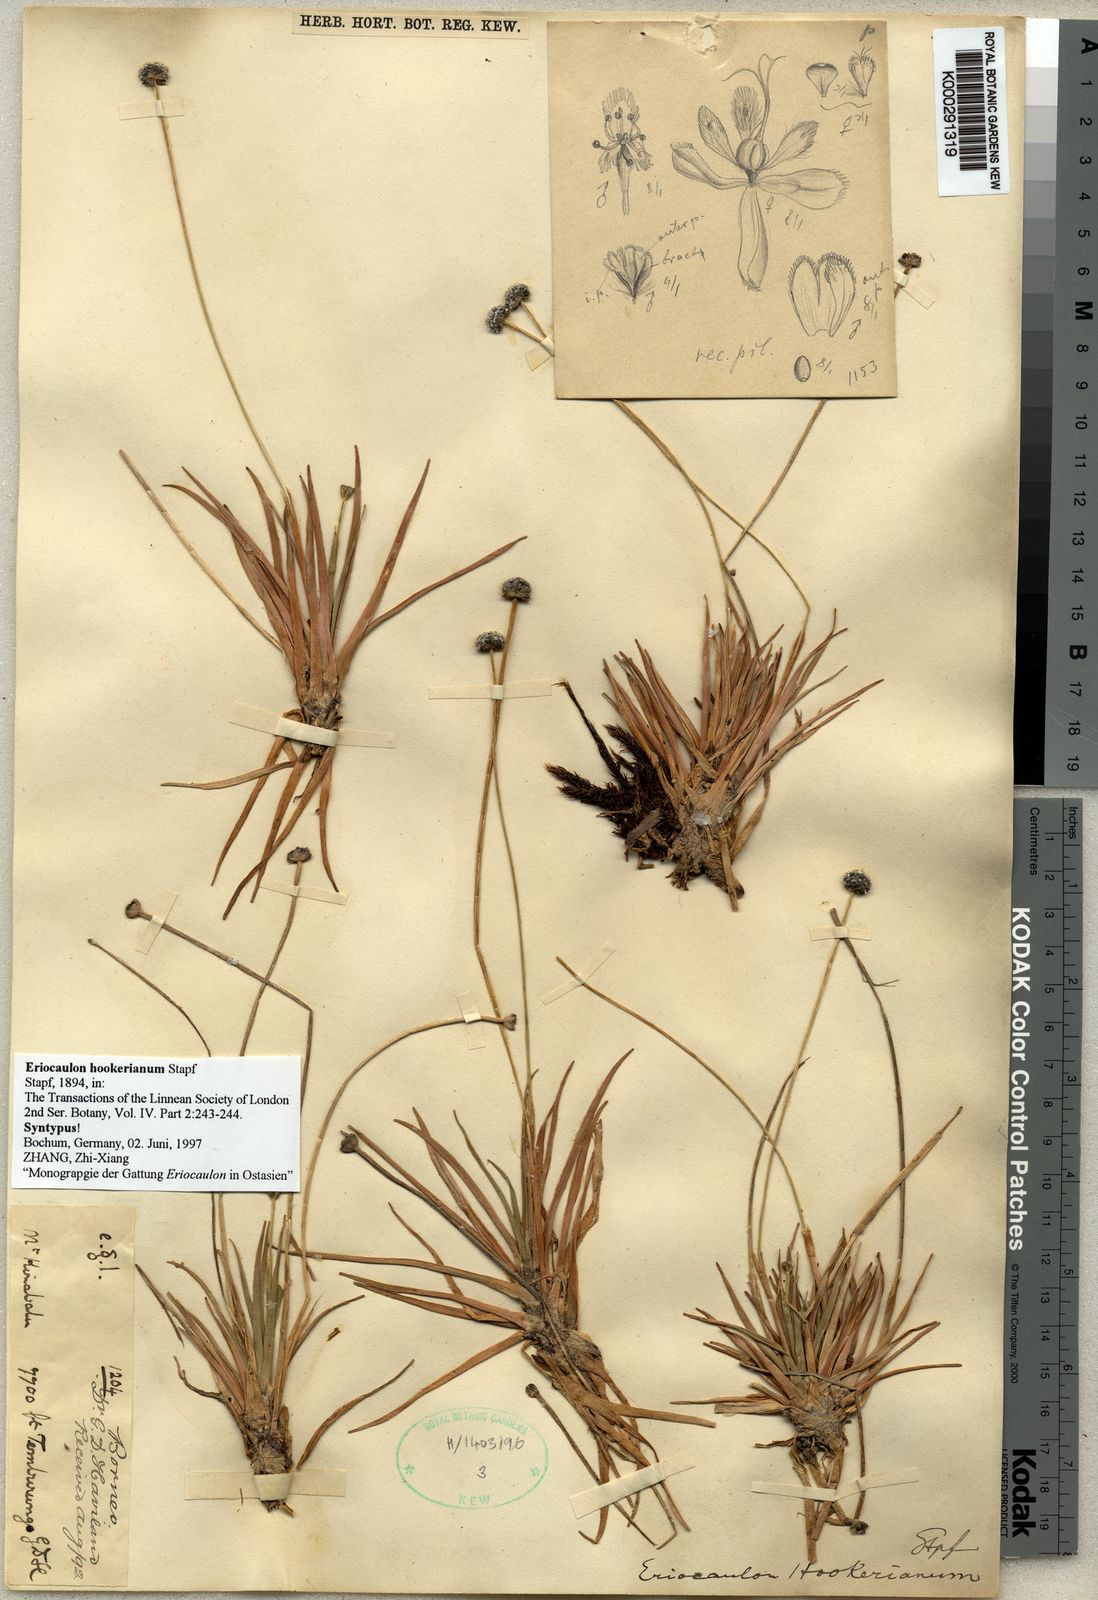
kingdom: Plantae
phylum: Tracheophyta
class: Liliopsida
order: Poales
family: Eriocaulaceae
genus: Eriocaulon
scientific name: Eriocaulon hookerianum
